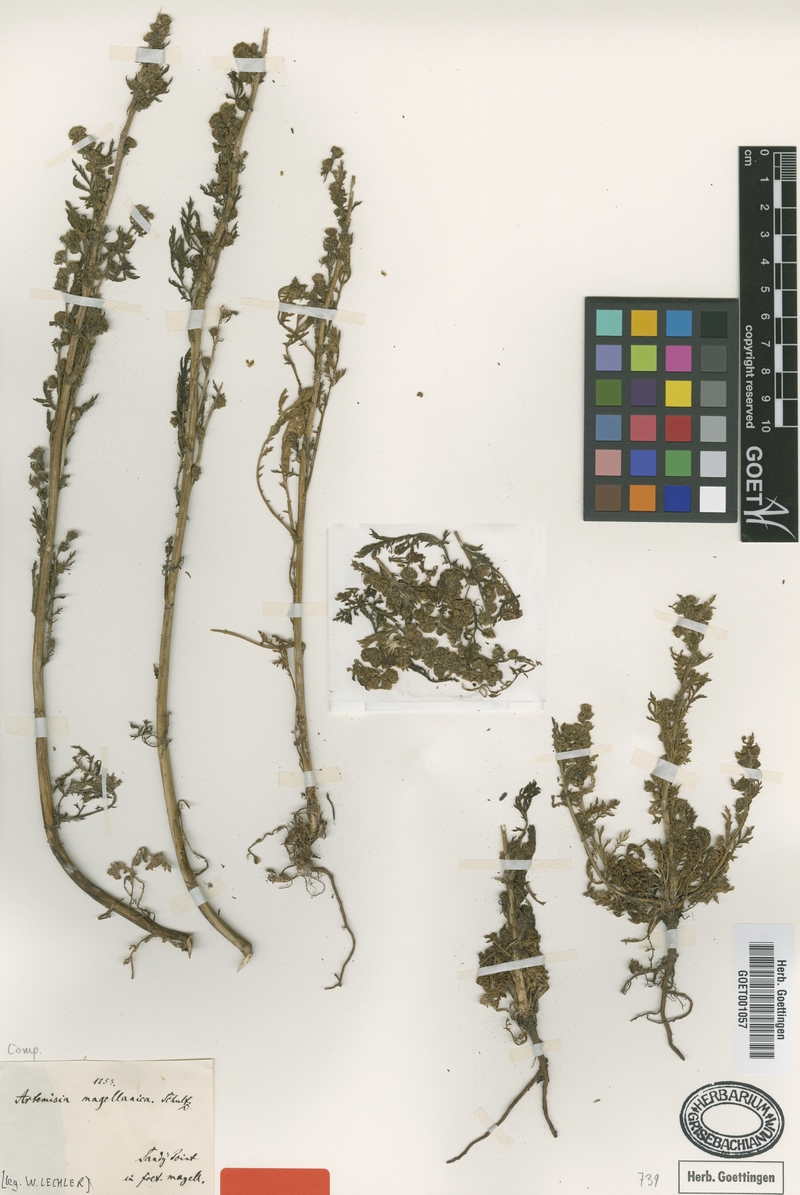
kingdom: Plantae
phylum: Tracheophyta
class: Magnoliopsida
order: Asterales
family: Asteraceae
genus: Artemisia
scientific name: Artemisia magellanica
